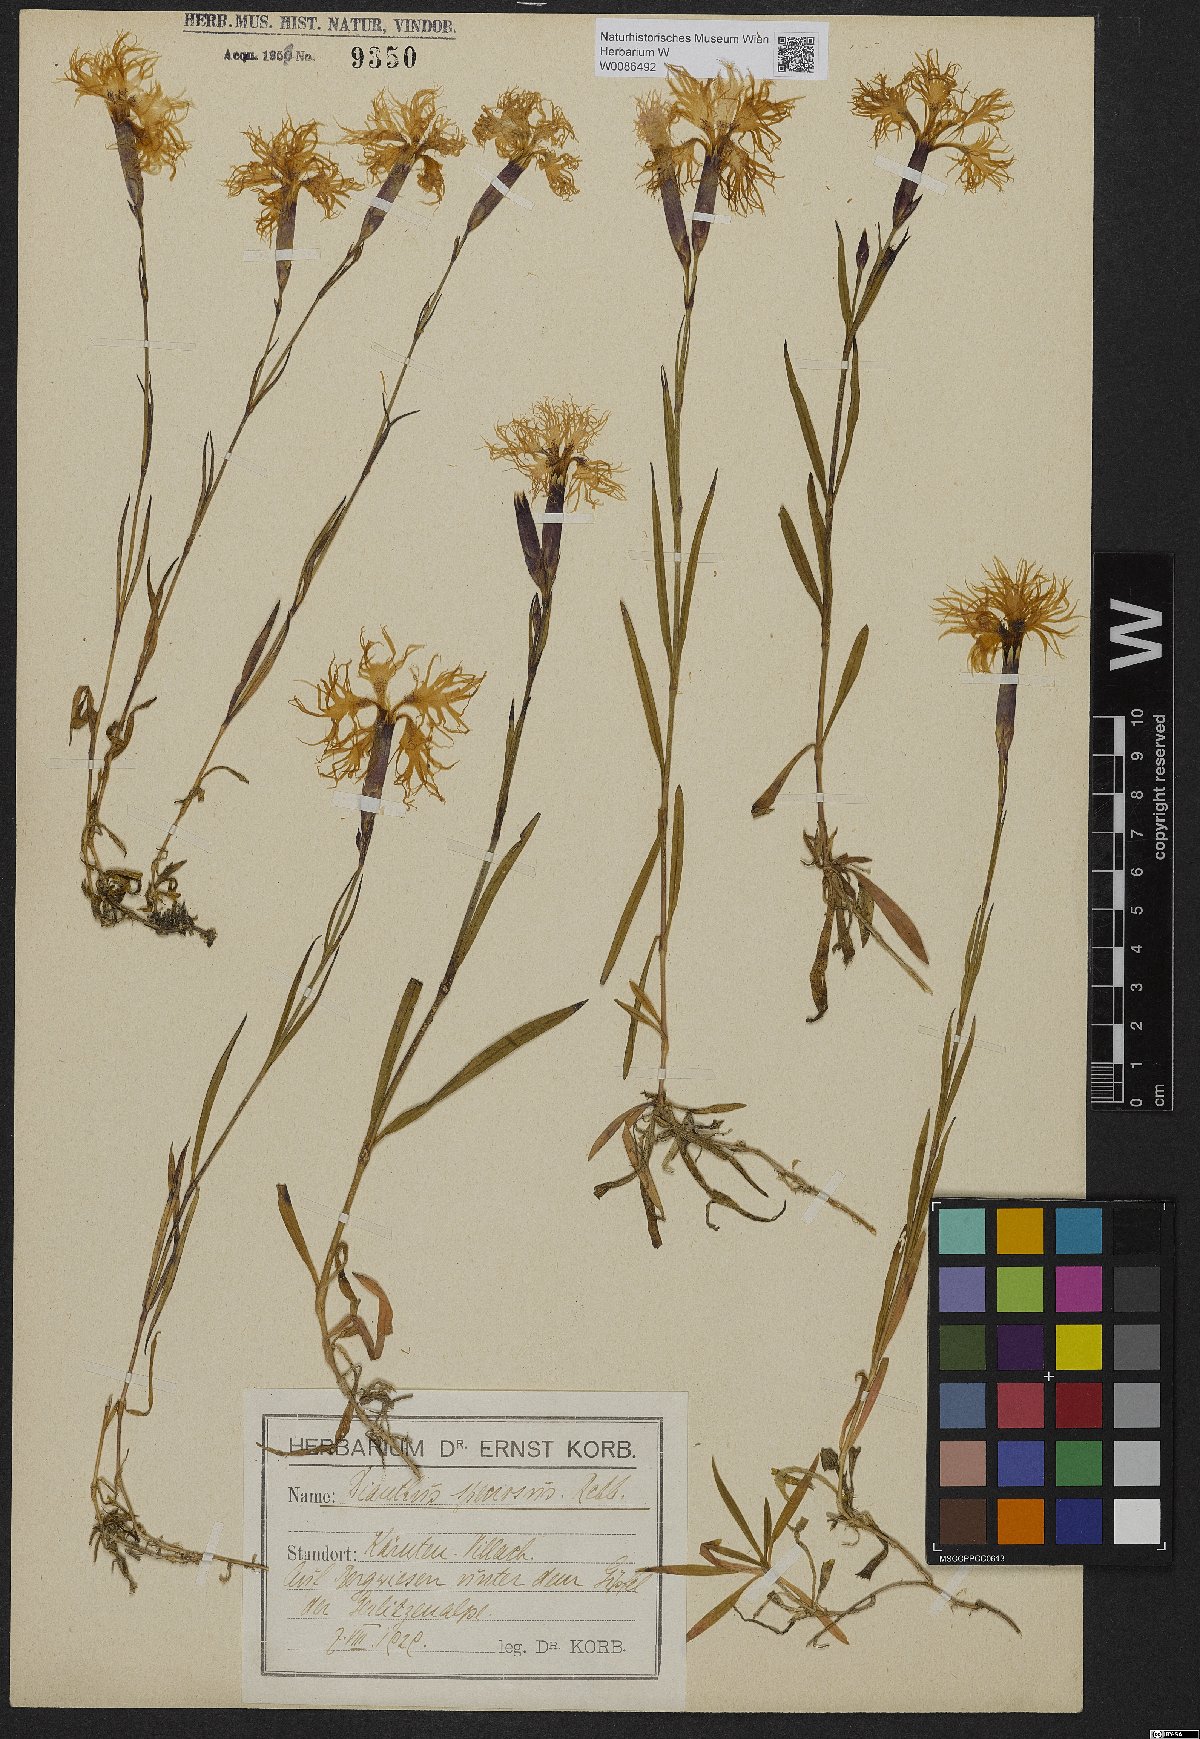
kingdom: Plantae
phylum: Tracheophyta
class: Magnoliopsida
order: Caryophyllales
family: Caryophyllaceae
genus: Dianthus
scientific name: Dianthus superbus
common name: Fringed pink
